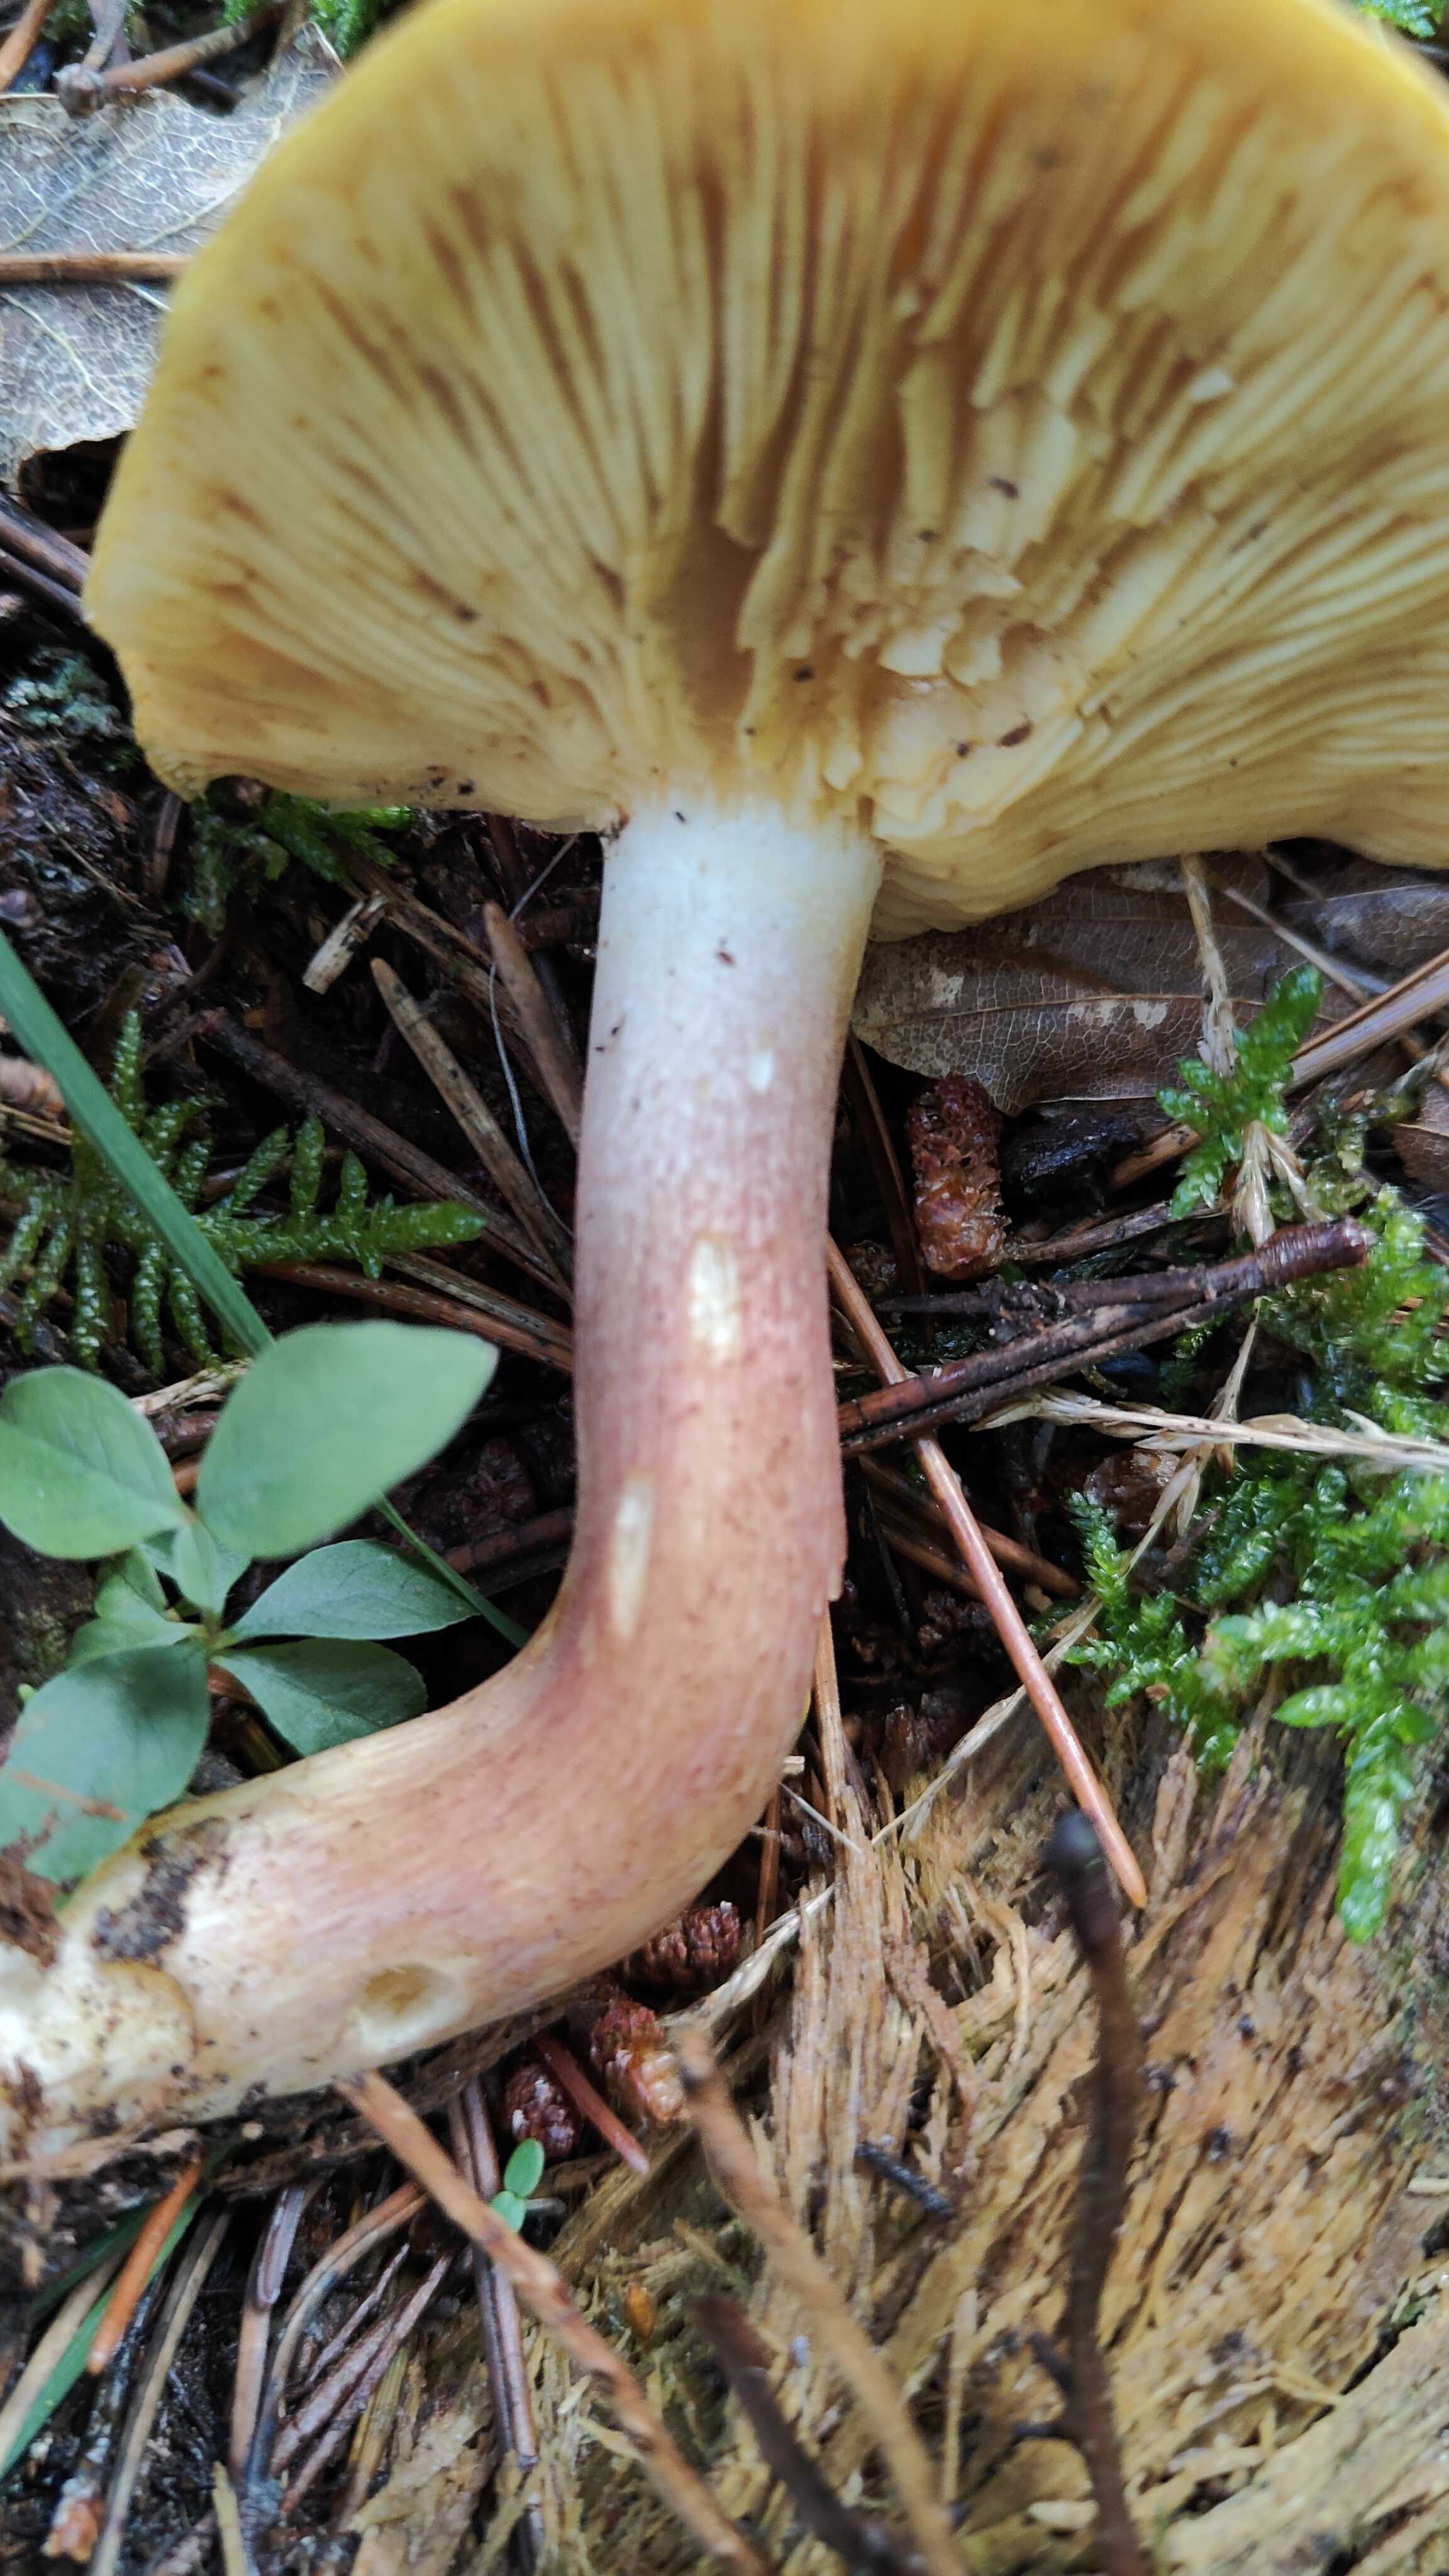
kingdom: Fungi
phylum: Basidiomycota
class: Agaricomycetes
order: Agaricales
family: Tricholomataceae
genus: Tricholomopsis
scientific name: Tricholomopsis rutilans
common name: purpur-væbnerhat
